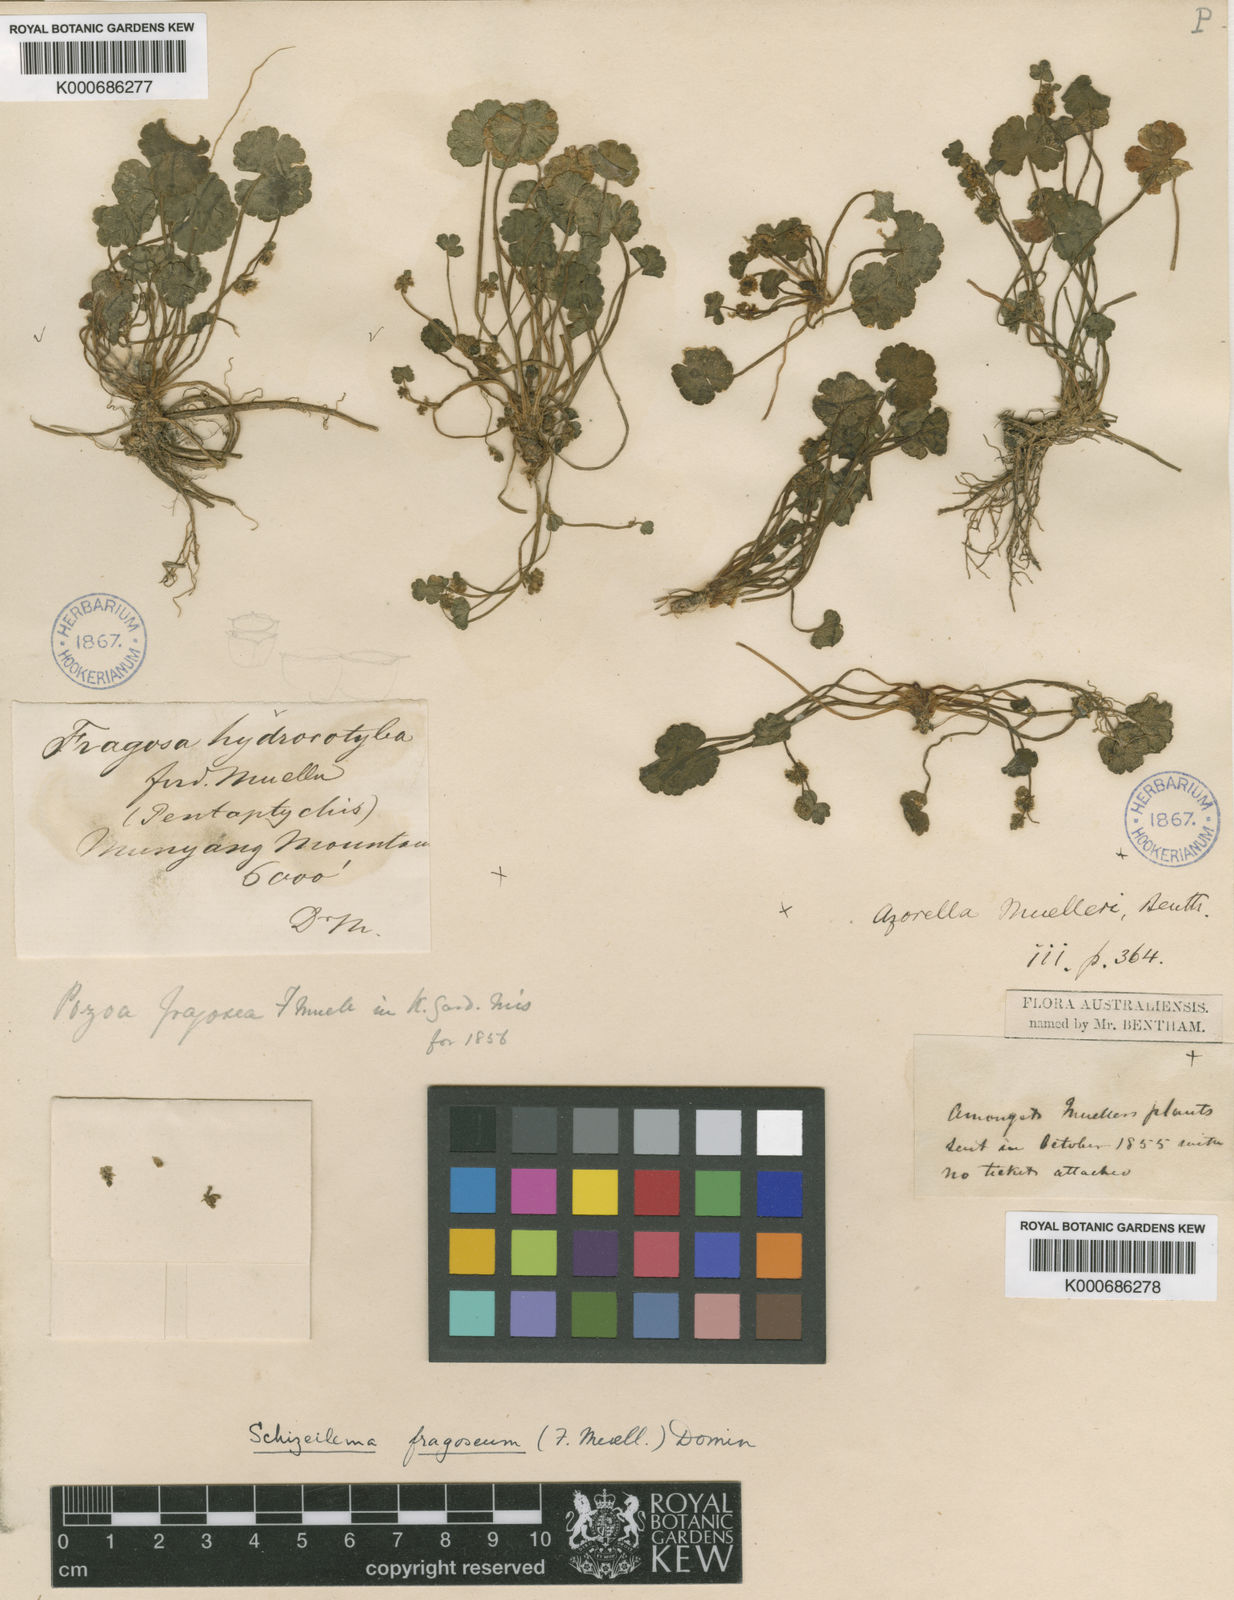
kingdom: Plantae
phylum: Tracheophyta
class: Magnoliopsida
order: Apiales
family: Apiaceae
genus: Azorella
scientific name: Azorella fragosea
